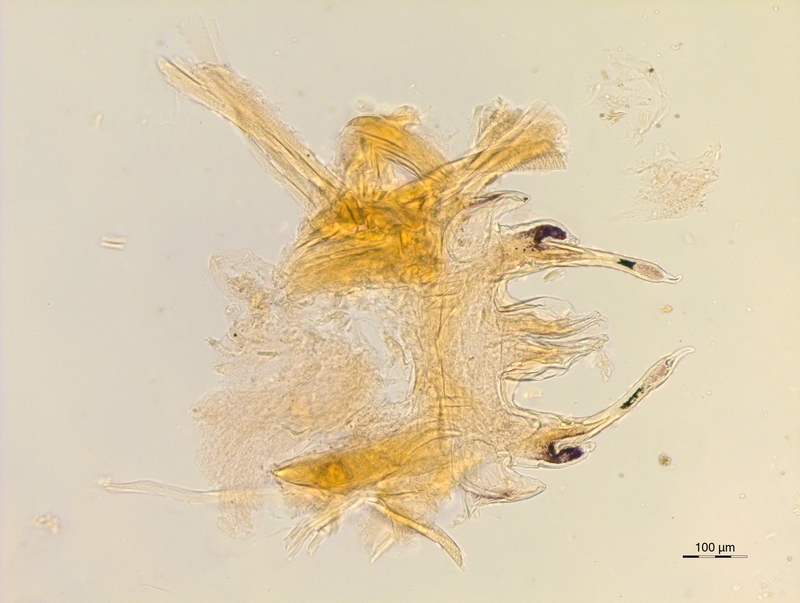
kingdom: Animalia
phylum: Arthropoda
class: Diplopoda
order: Chordeumatida
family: Anthroleucosomatidae
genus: Anamastigona
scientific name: Anamastigona pulchella
